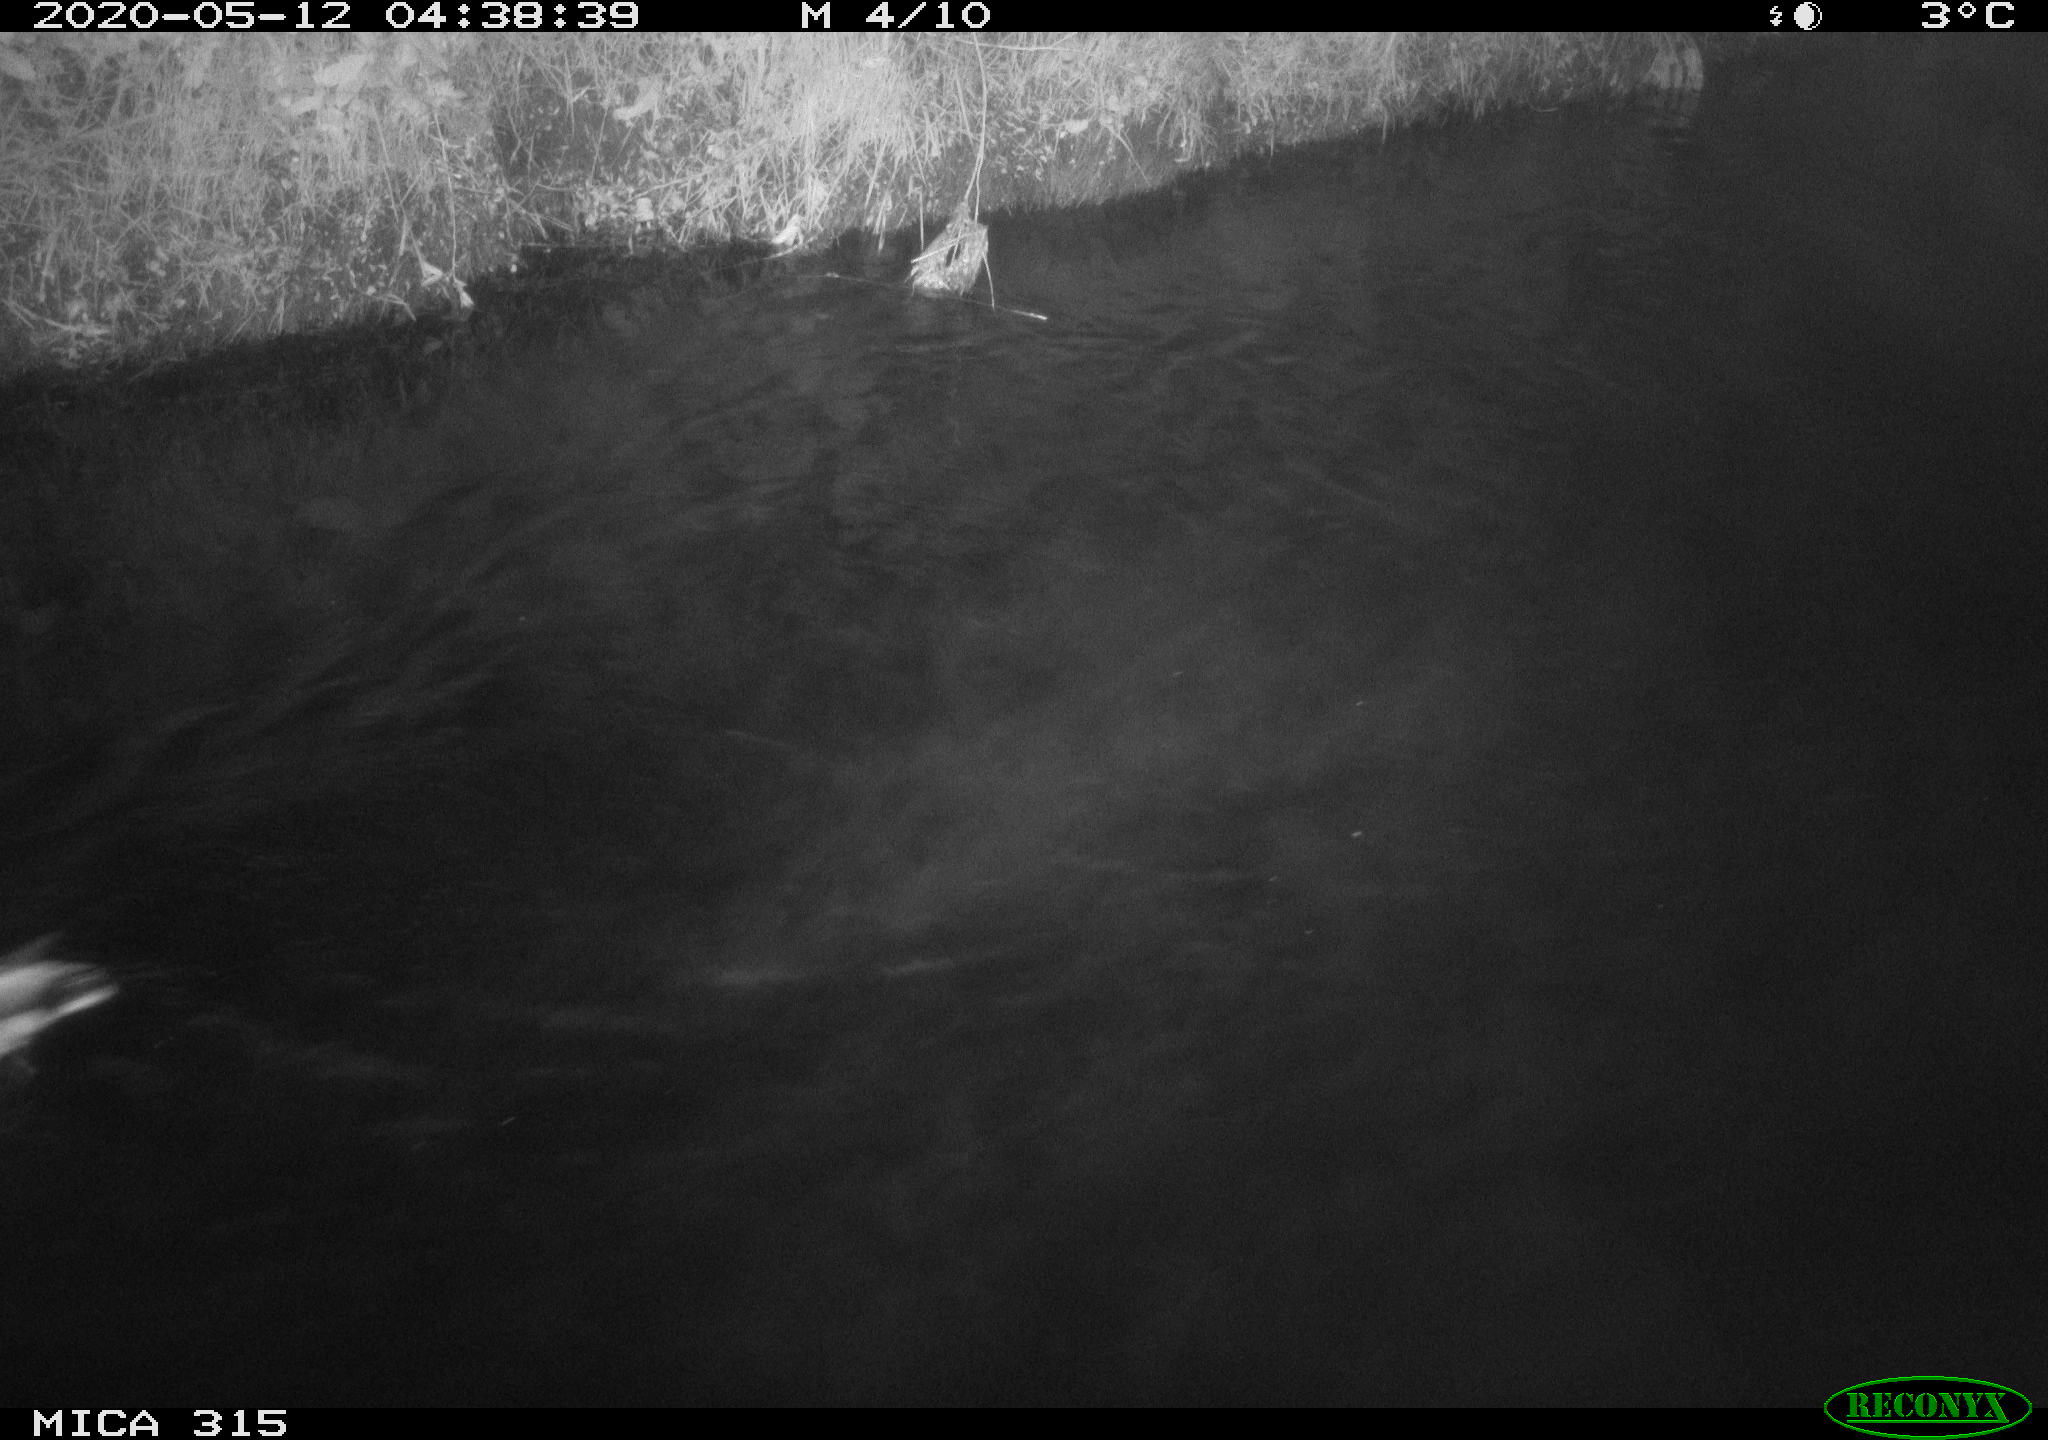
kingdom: Animalia
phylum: Chordata
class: Aves
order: Anseriformes
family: Anatidae
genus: Anas
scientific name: Anas platyrhynchos
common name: Mallard
